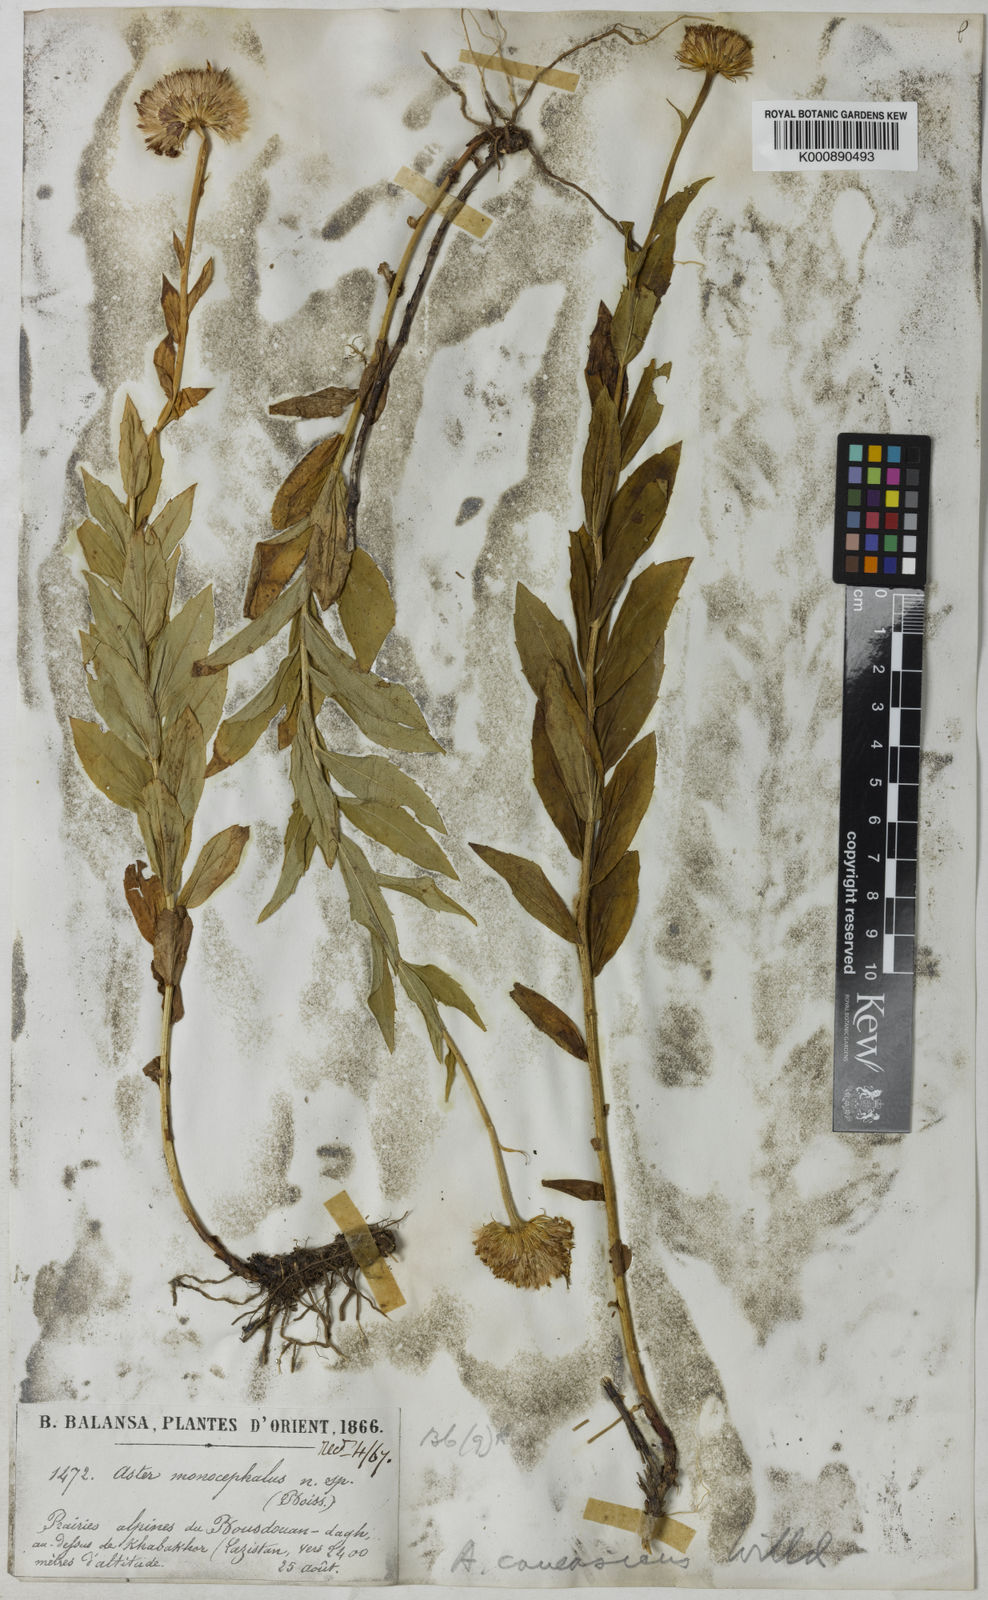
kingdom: Plantae
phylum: Tracheophyta
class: Magnoliopsida
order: Asterales
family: Asteraceae
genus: Kemulariella
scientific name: Kemulariella caucasica
